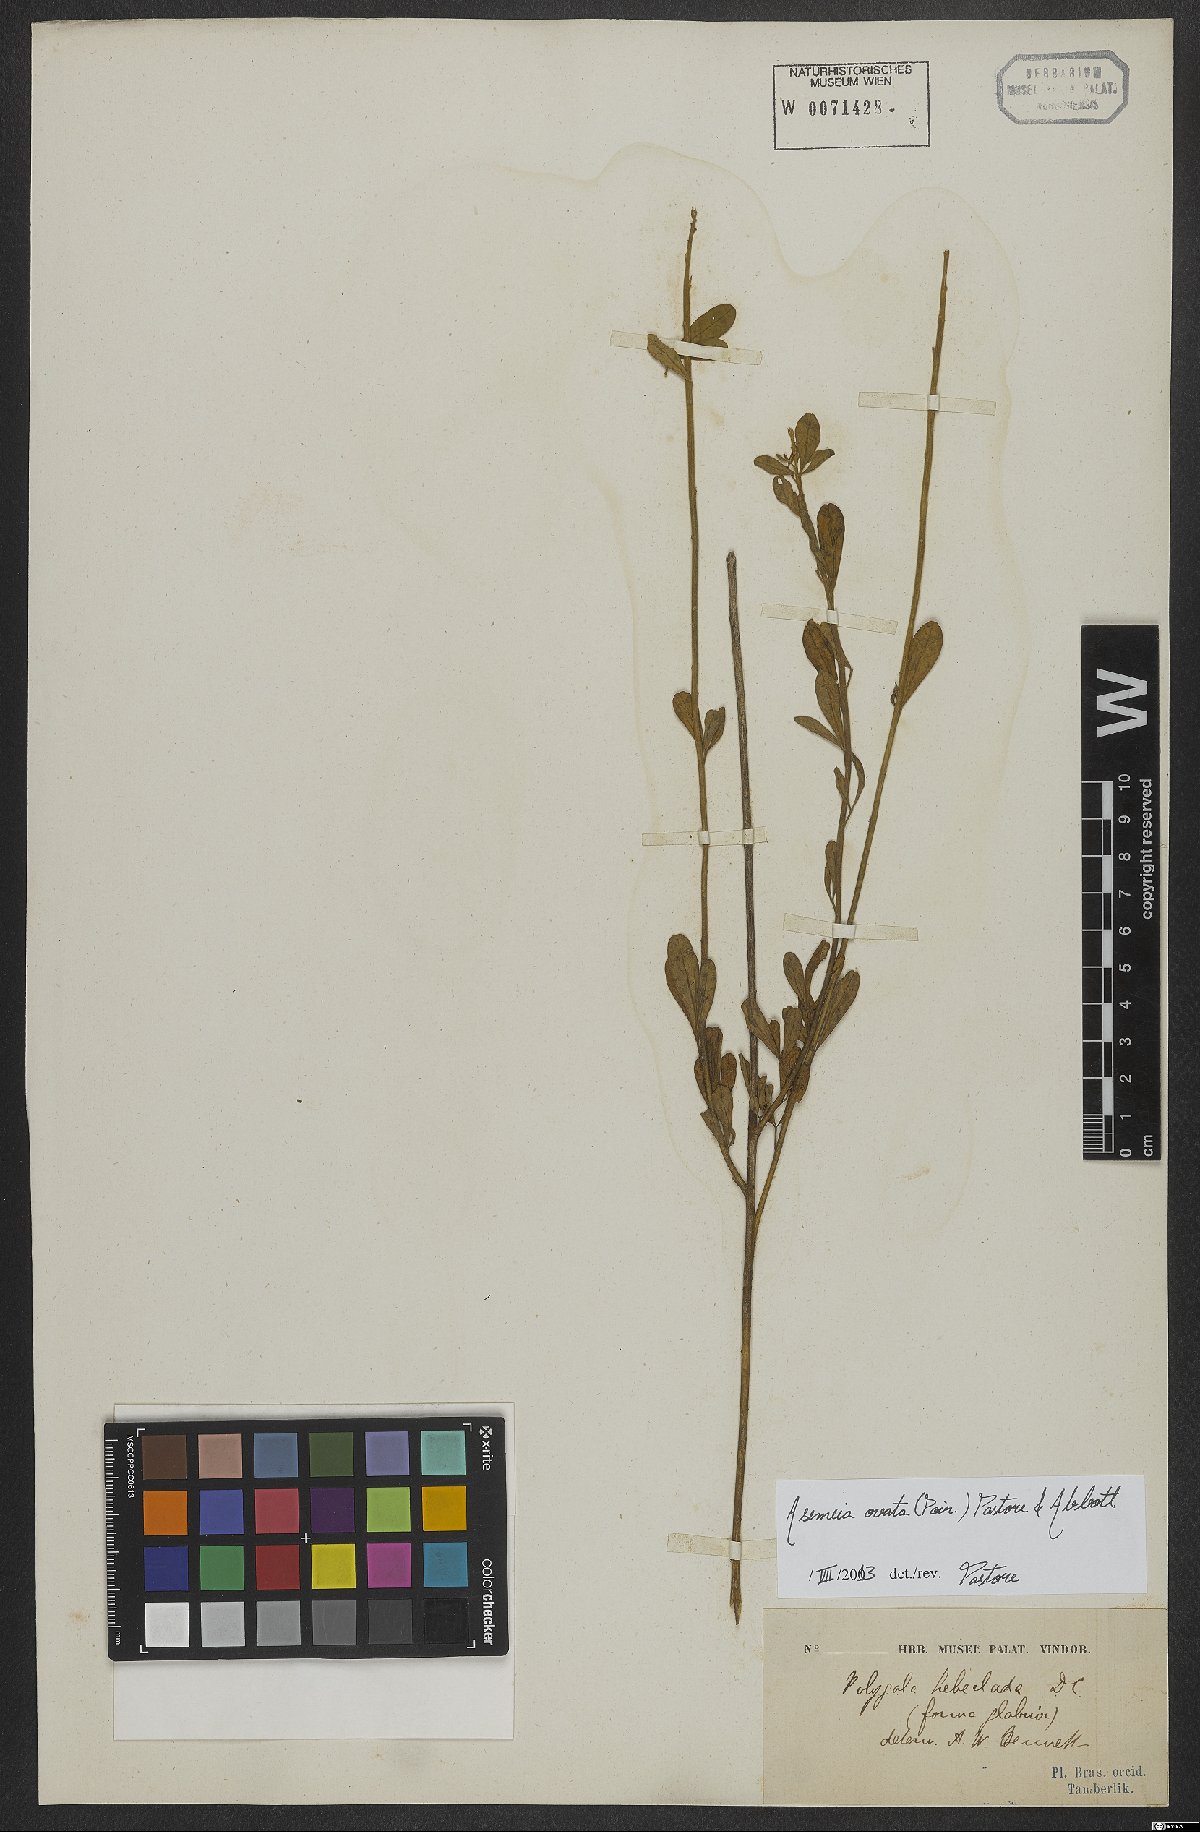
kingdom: Plantae
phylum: Tracheophyta
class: Magnoliopsida
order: Fabales
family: Polygalaceae
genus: Asemeia
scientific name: Asemeia ovata
